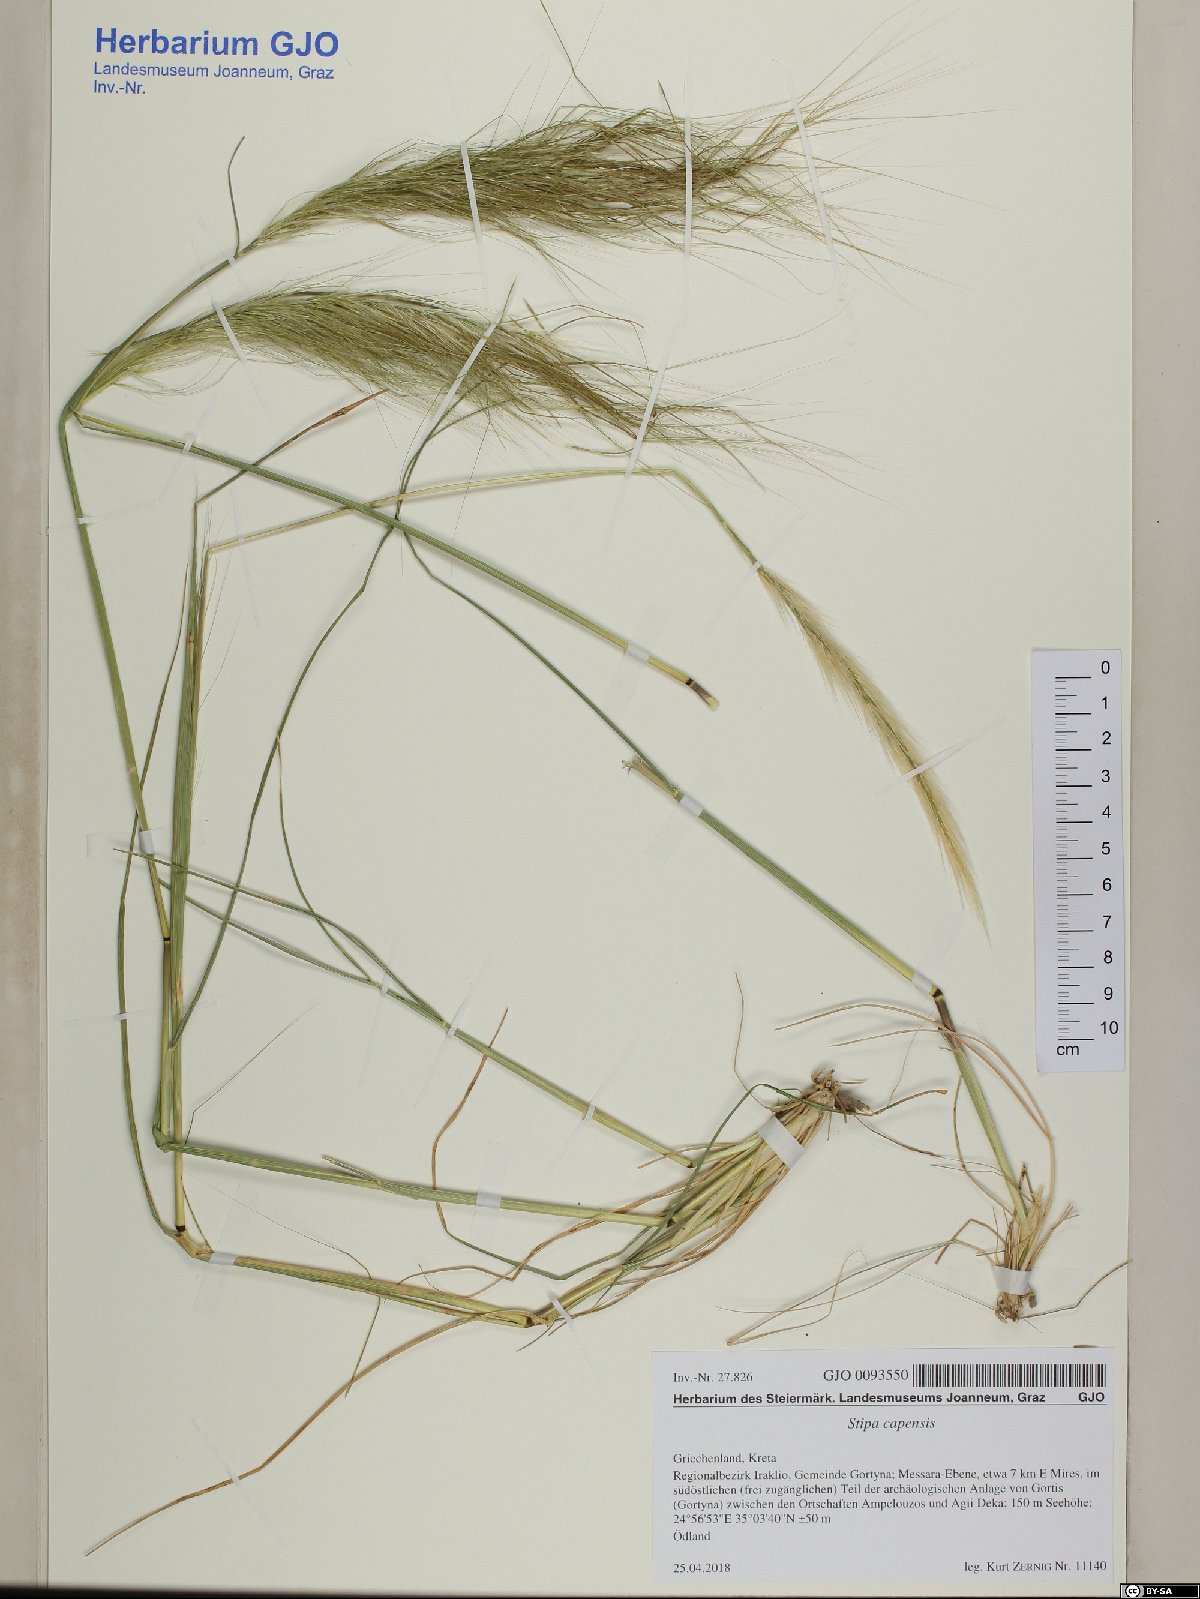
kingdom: Plantae
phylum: Tracheophyta
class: Liliopsida
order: Poales
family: Poaceae
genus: Stipellula
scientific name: Stipellula capensis
